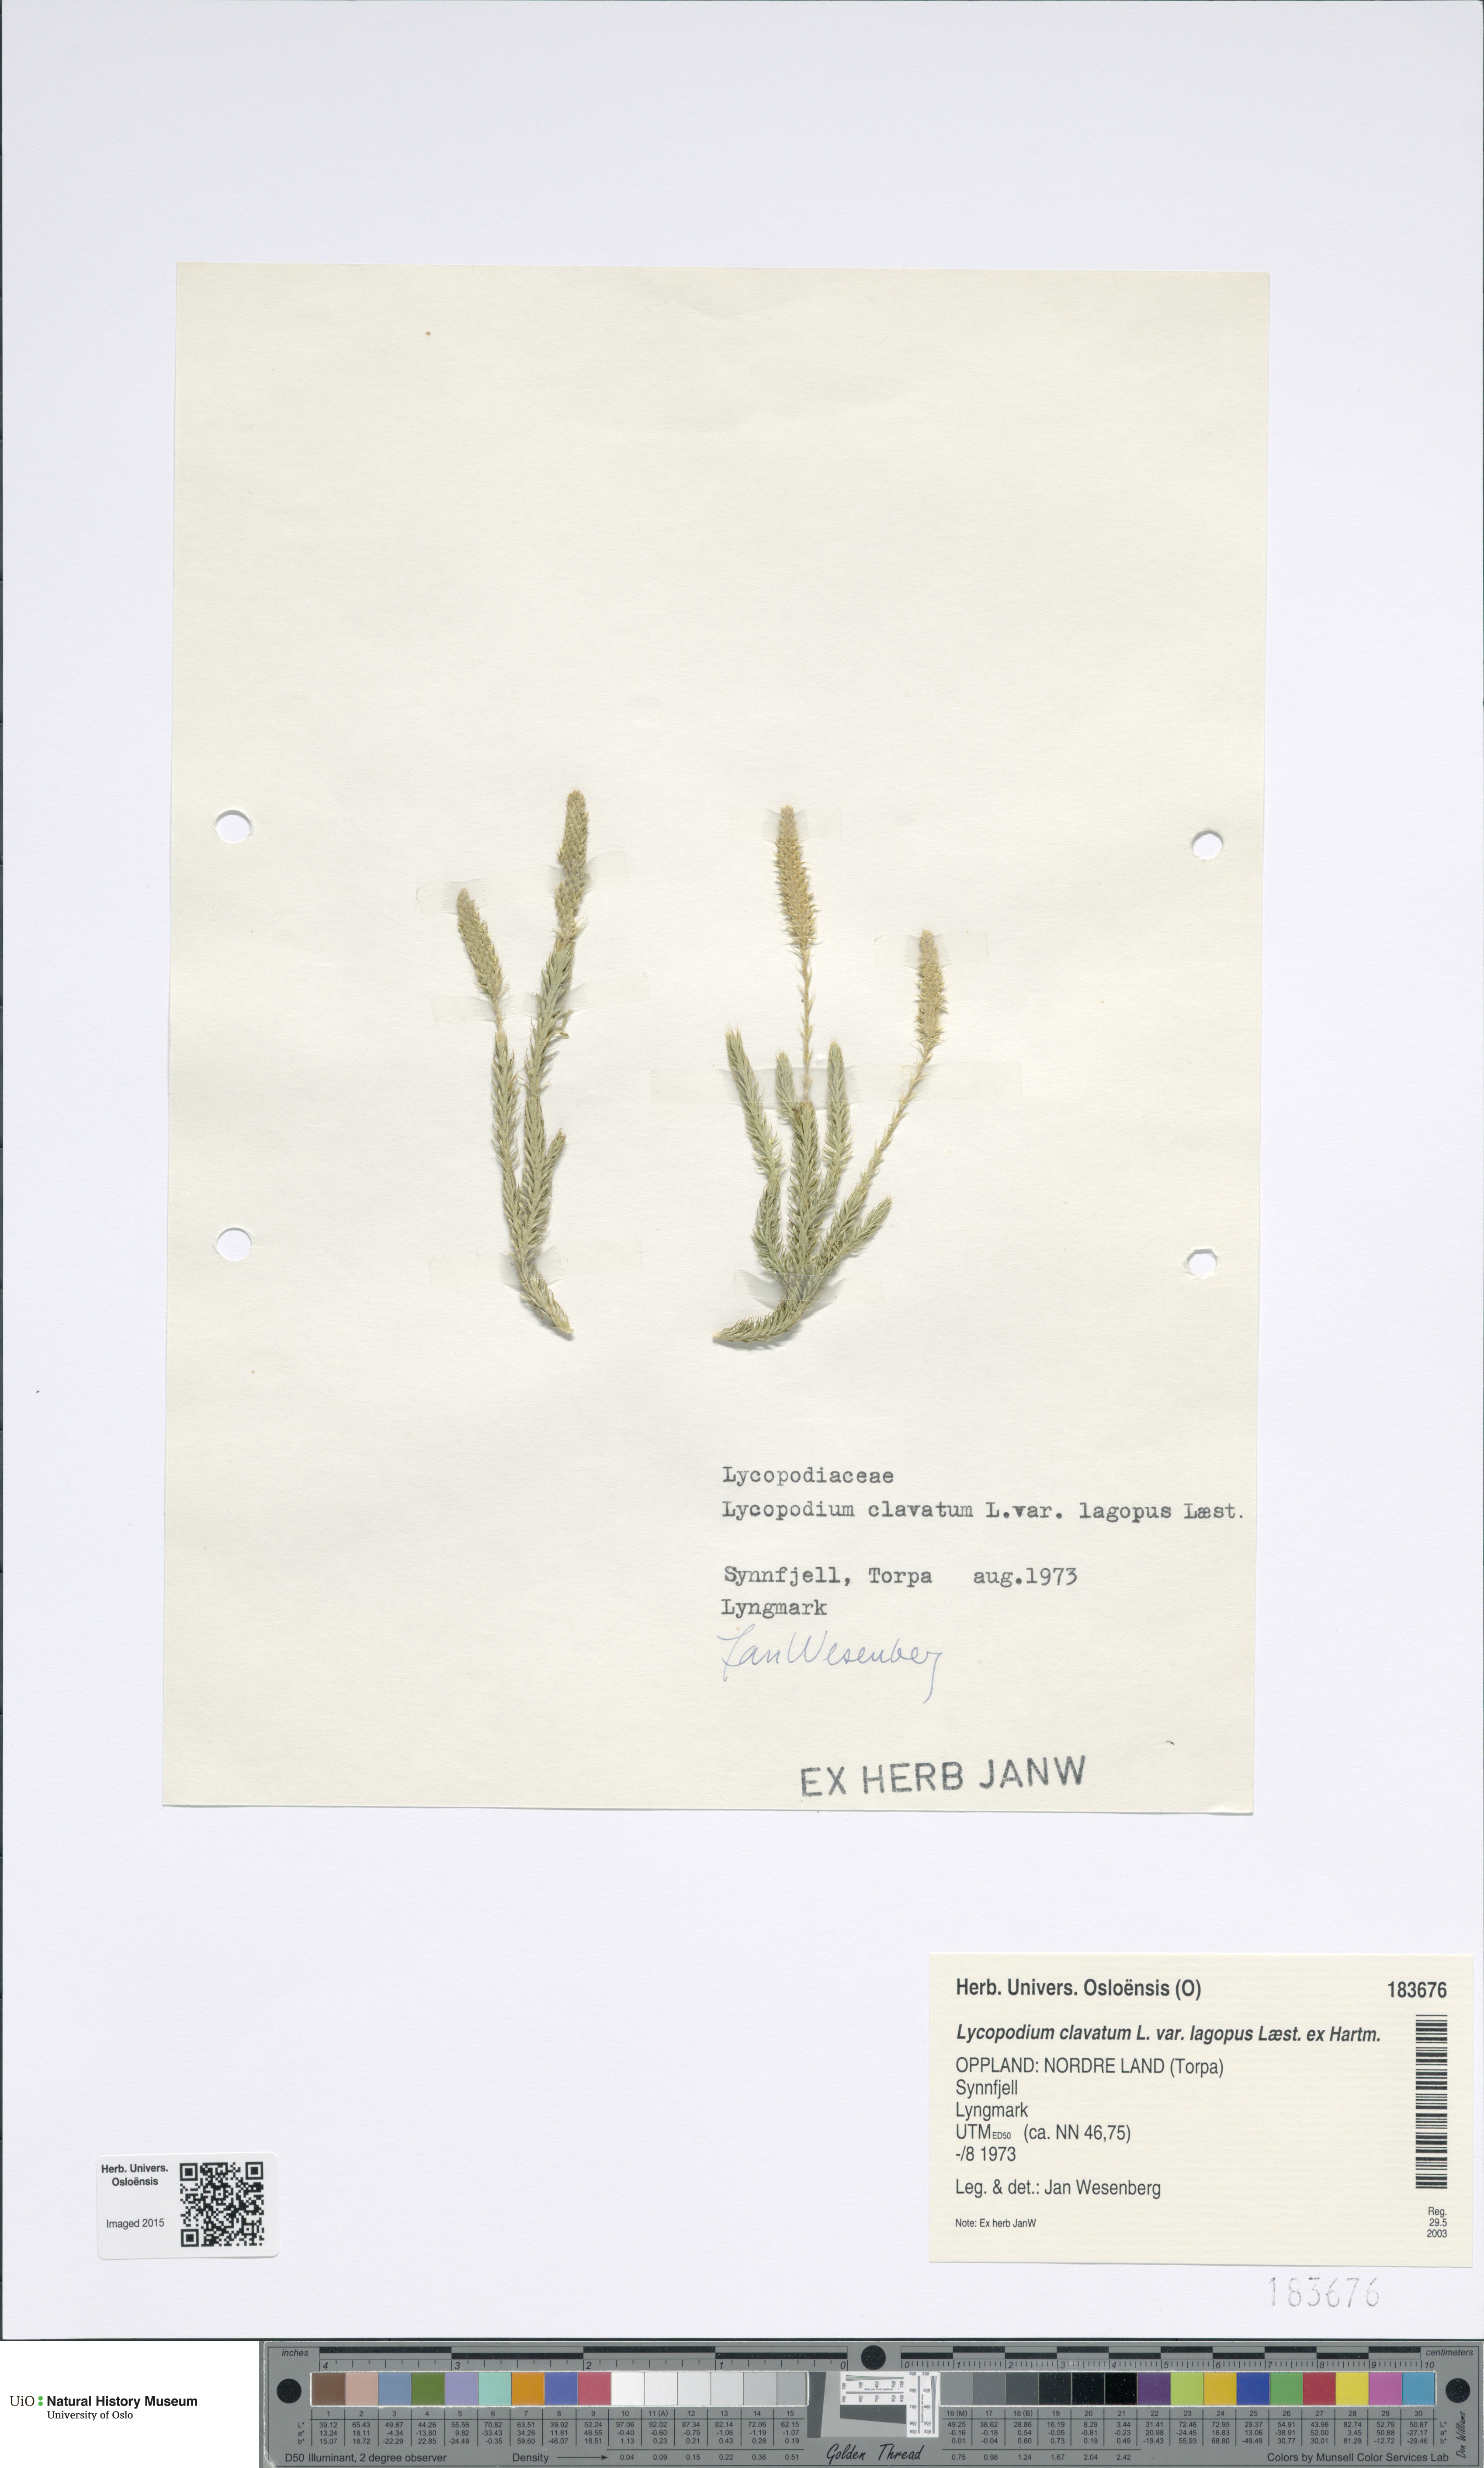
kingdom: Plantae
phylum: Tracheophyta
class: Lycopodiopsida
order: Lycopodiales
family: Lycopodiaceae
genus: Lycopodium
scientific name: Lycopodium lagopus
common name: One-cone clubmoss
